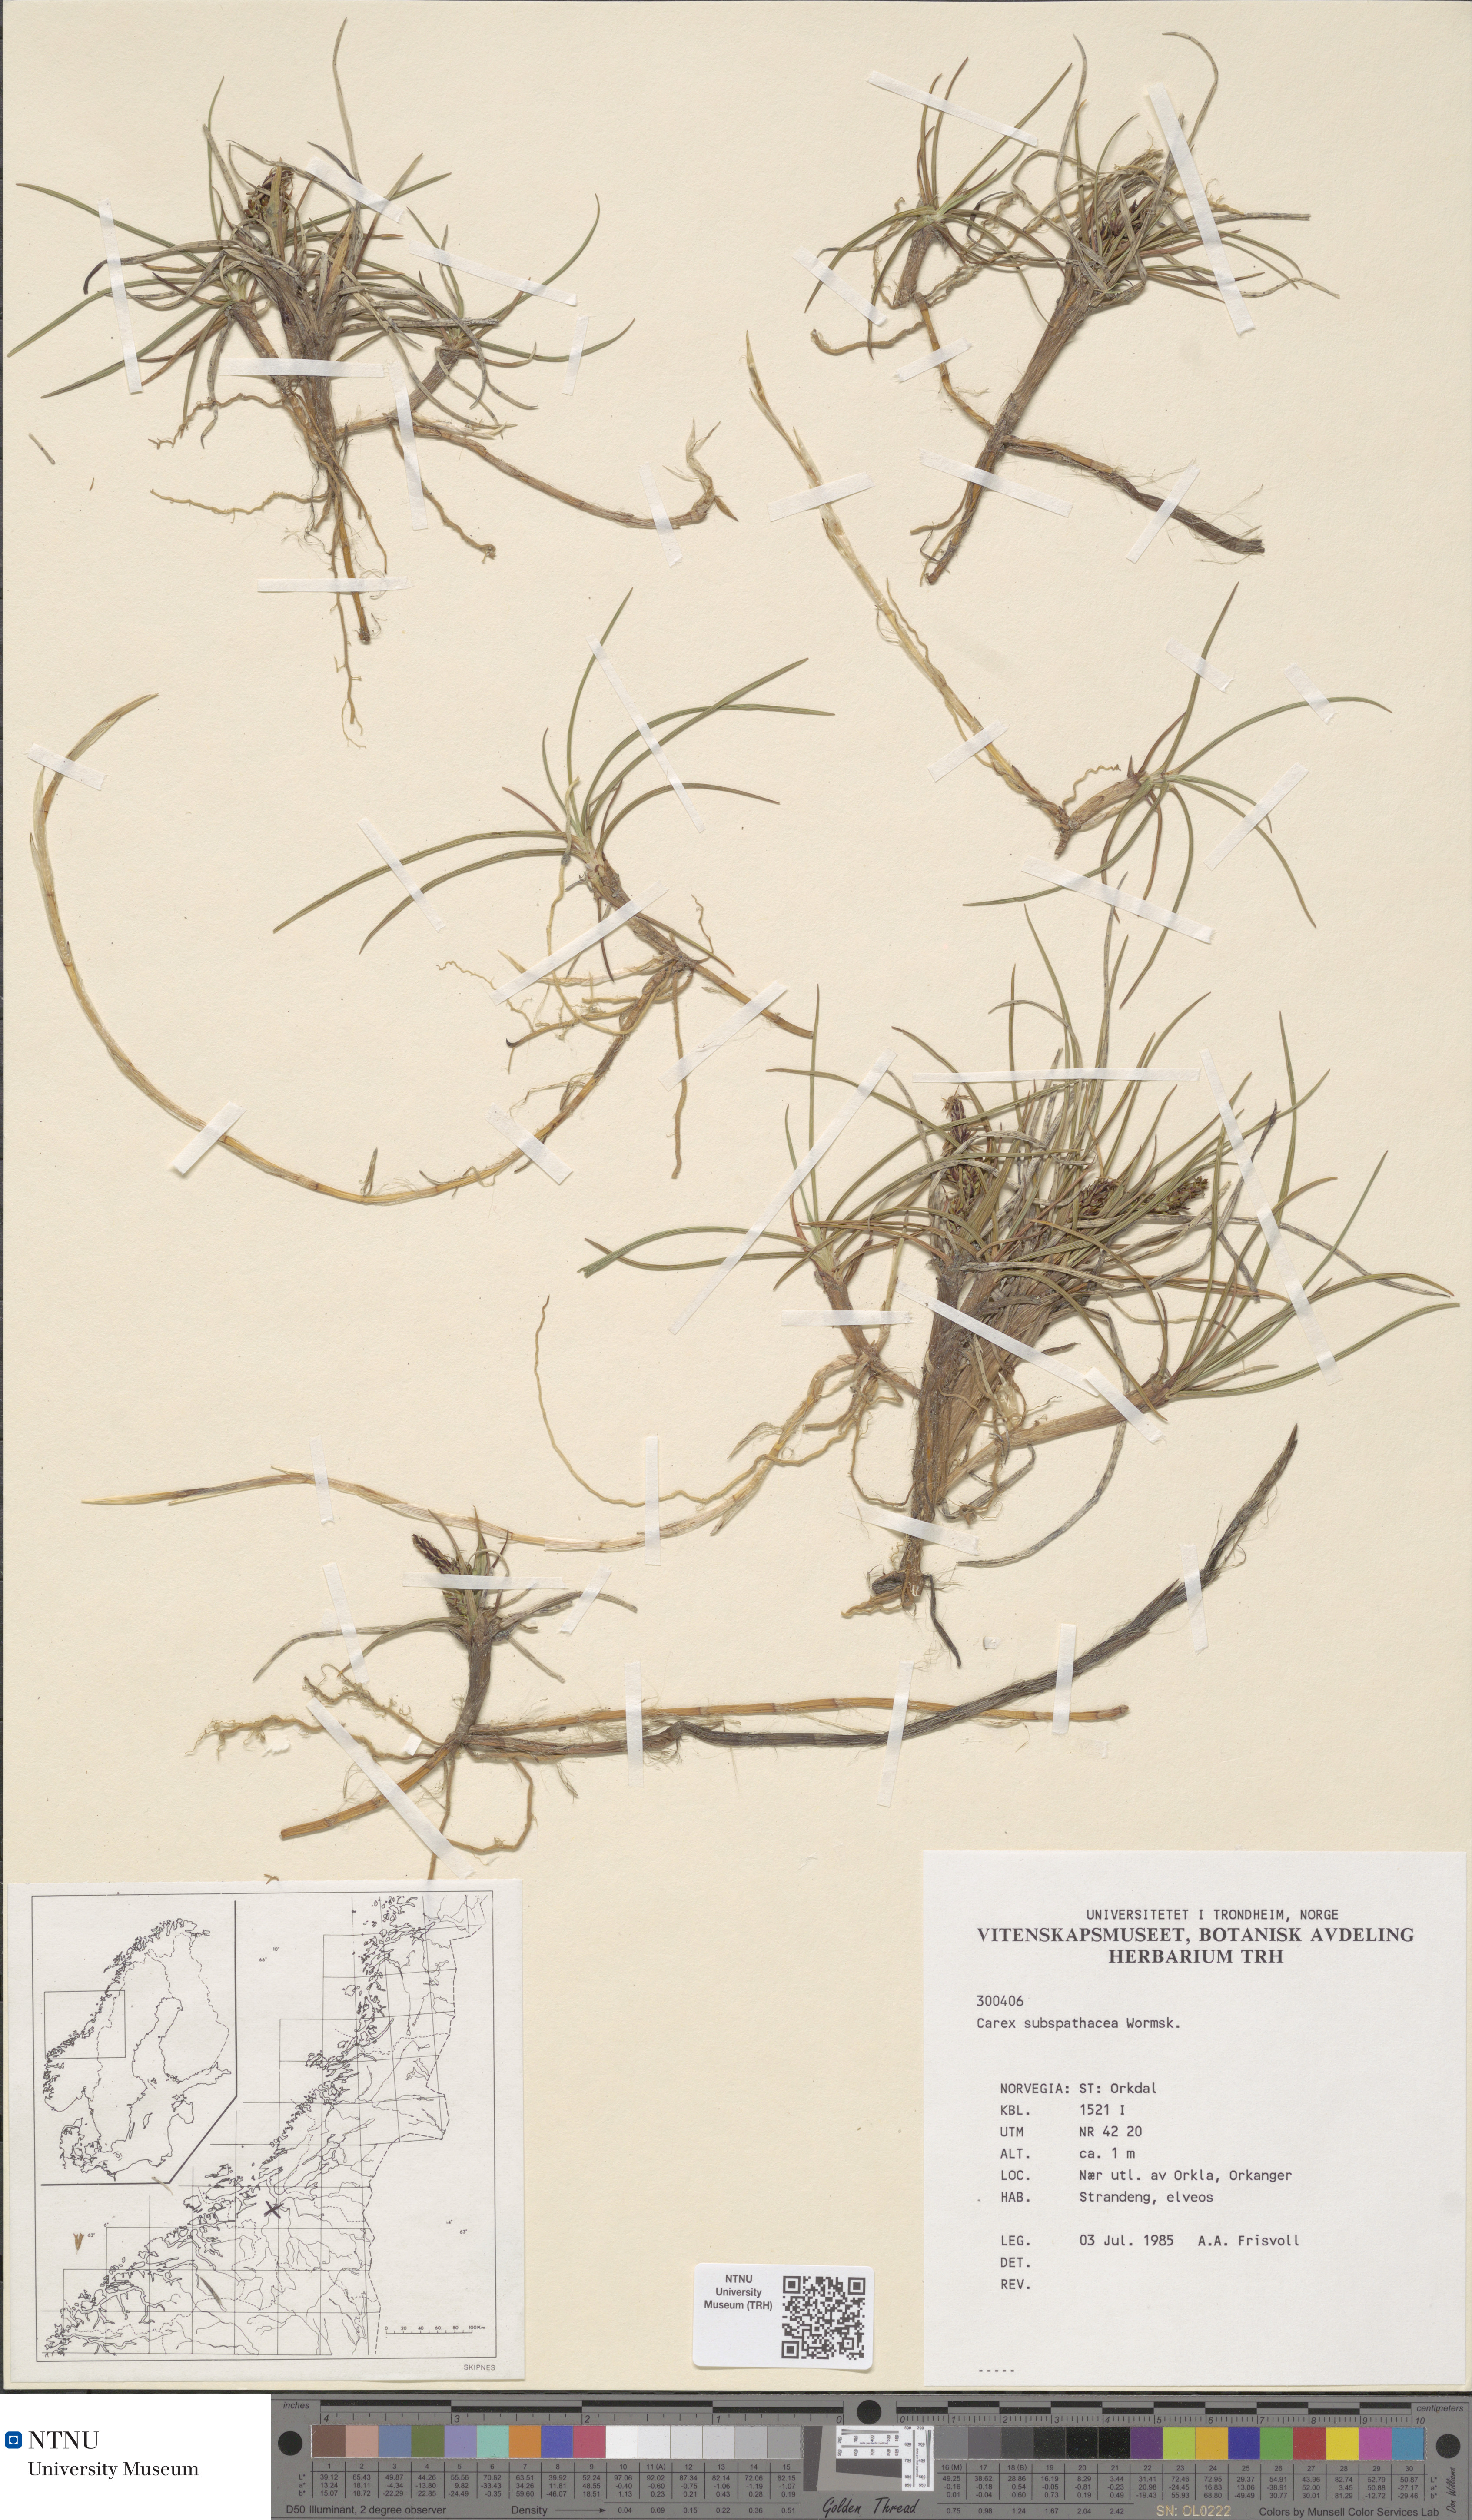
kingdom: Plantae
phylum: Tracheophyta
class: Liliopsida
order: Poales
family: Cyperaceae
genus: Carex
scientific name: Carex subspathacea
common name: Hoppner's sedge
